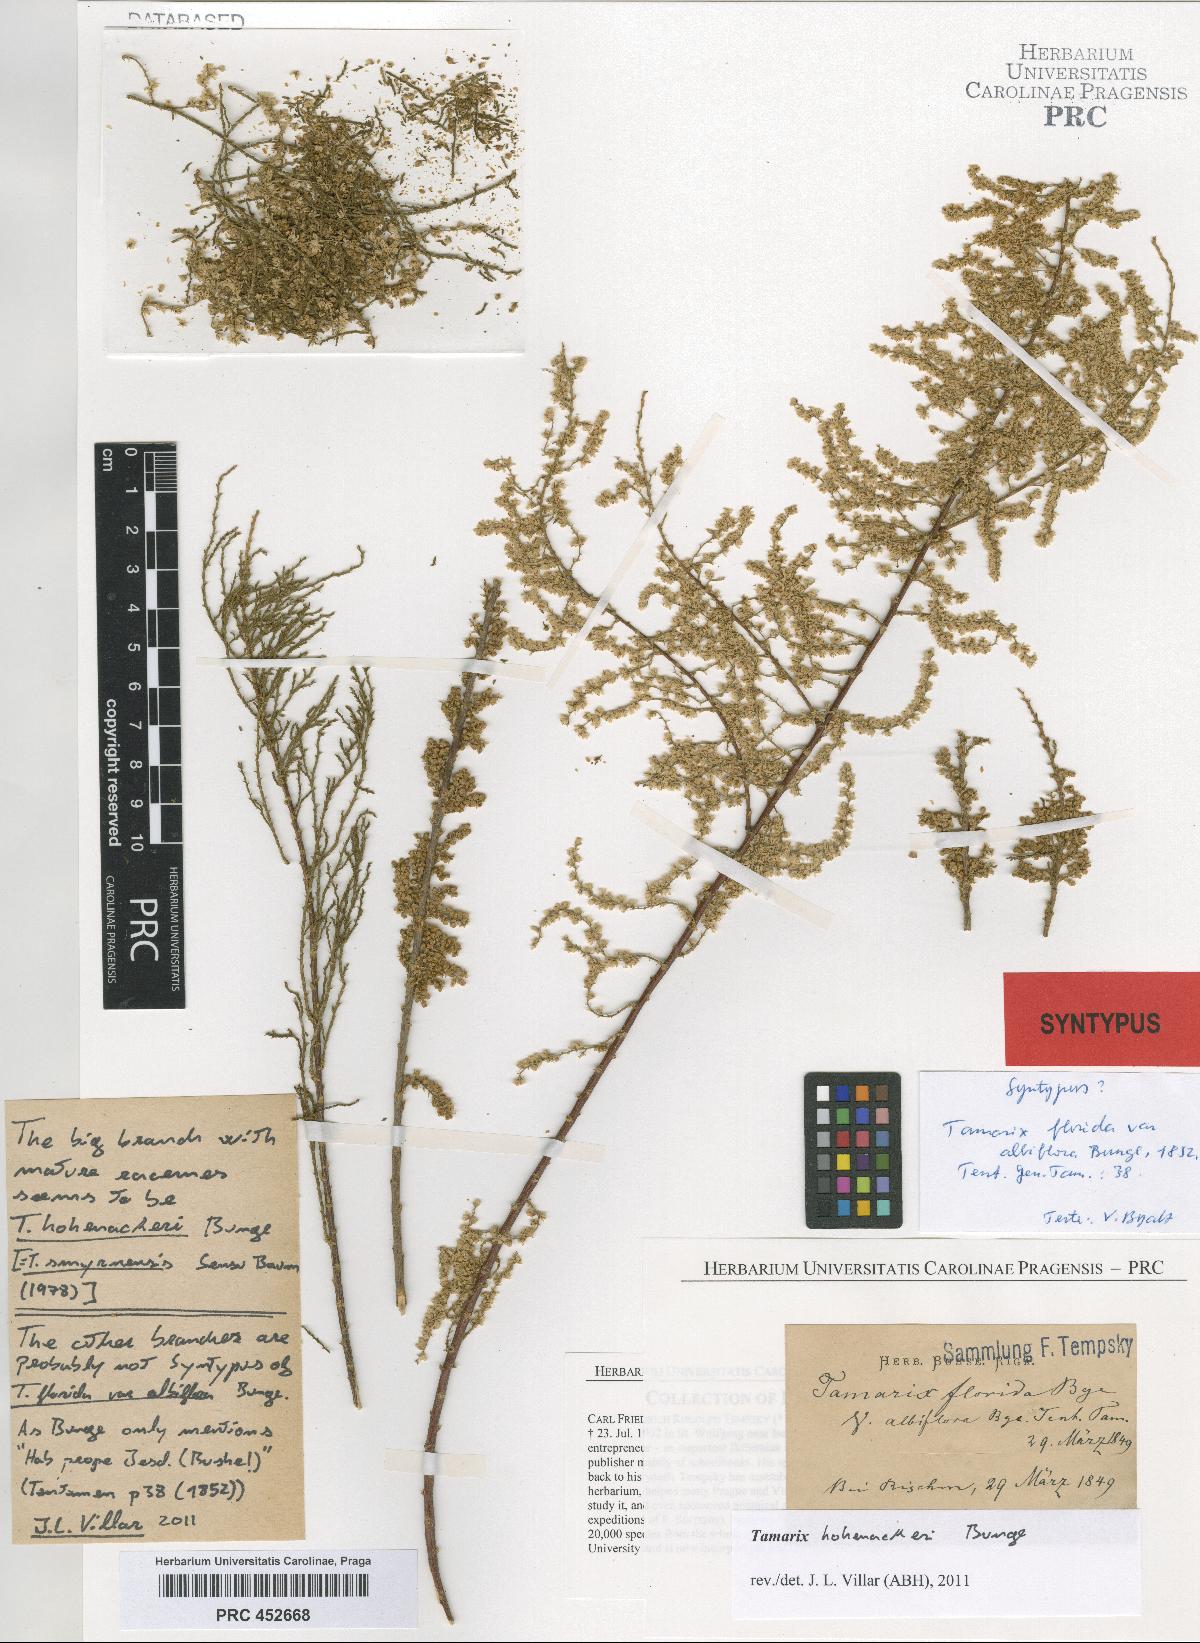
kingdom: Plantae
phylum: Tracheophyta
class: Magnoliopsida
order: Caryophyllales
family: Tamaricaceae
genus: Tamarix
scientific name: Tamarix florida
